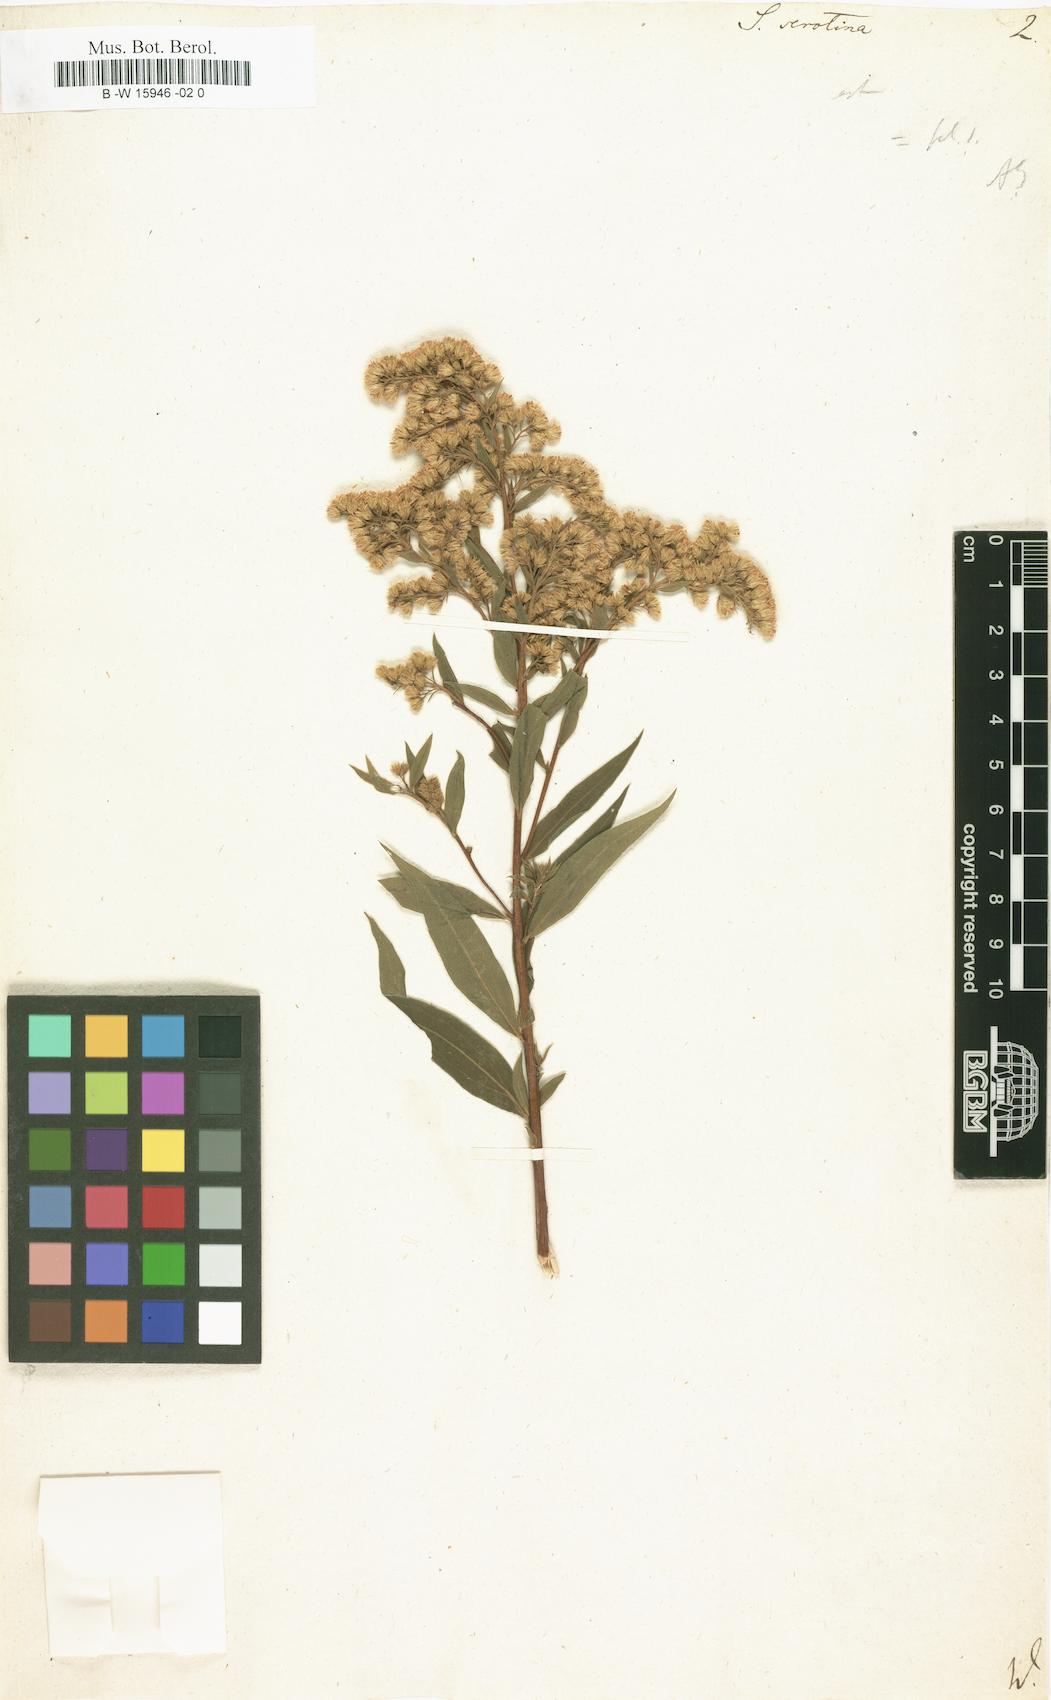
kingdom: Plantae
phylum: Tracheophyta
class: Magnoliopsida
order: Asterales
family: Asteraceae
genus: Solidago
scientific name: Solidago serotina
